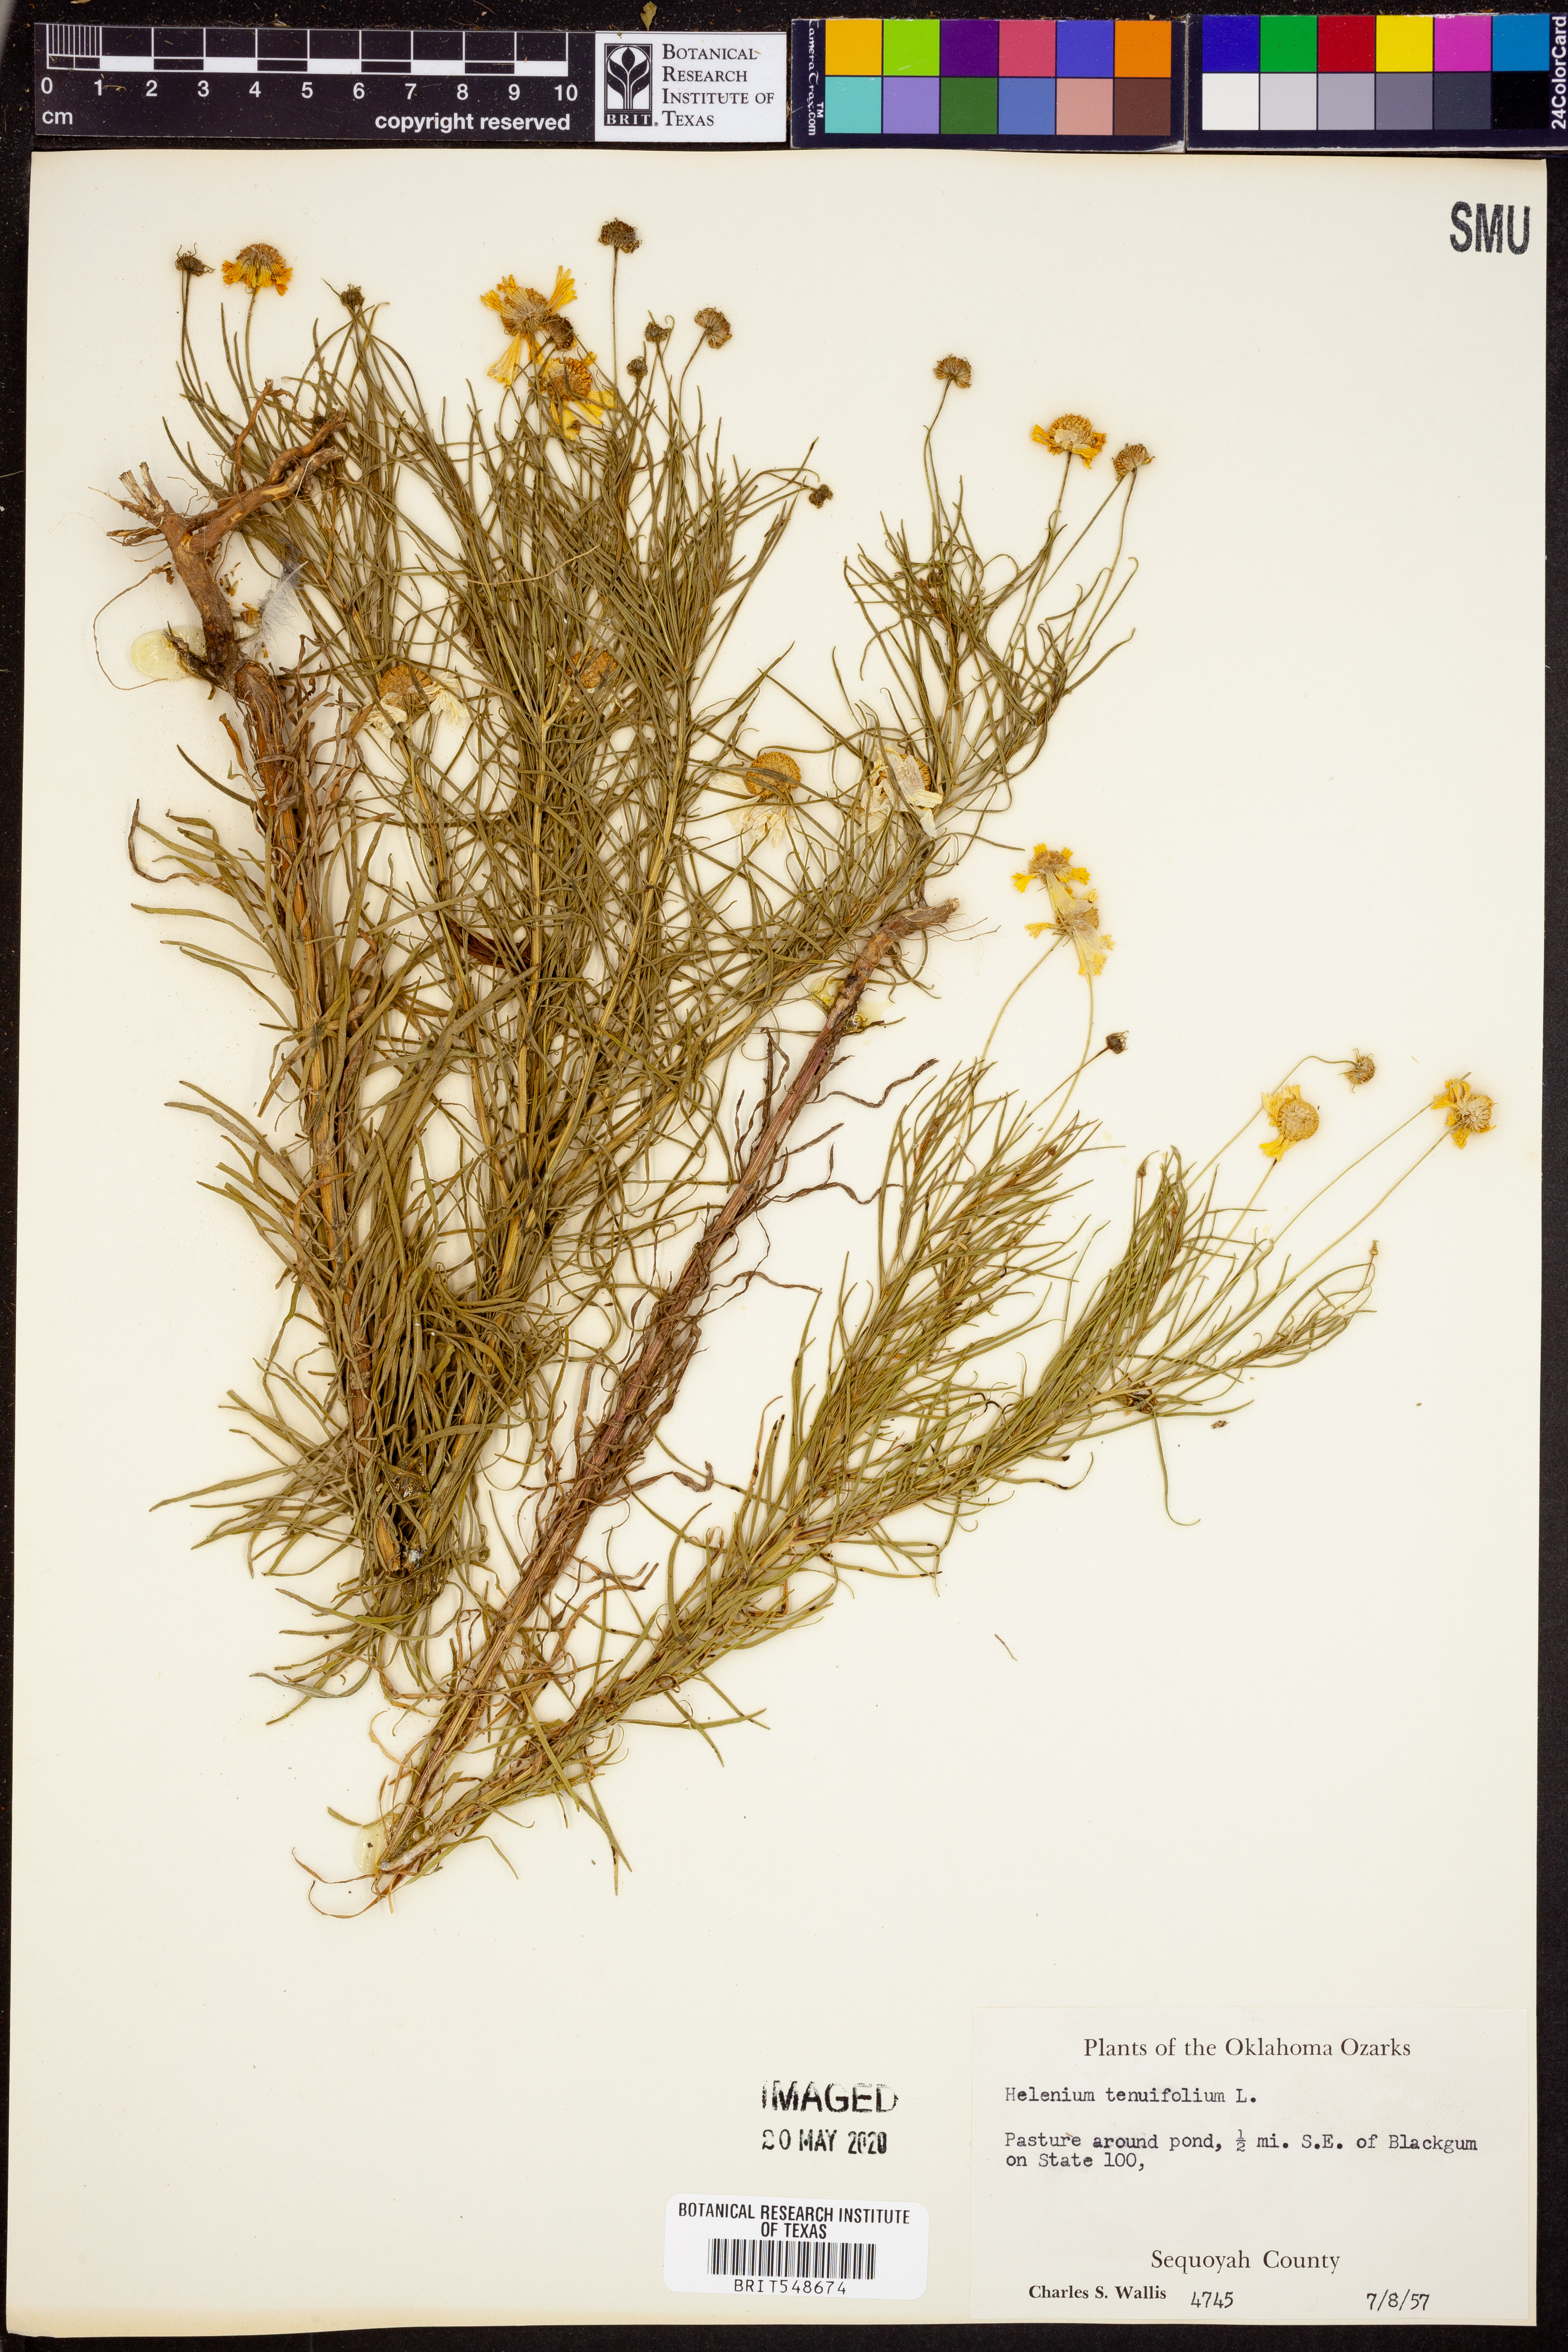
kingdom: Plantae
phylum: Tracheophyta
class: Magnoliopsida
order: Asterales
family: Asteraceae
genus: Helenium
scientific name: Helenium amarum
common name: Bitter sneezeweed
